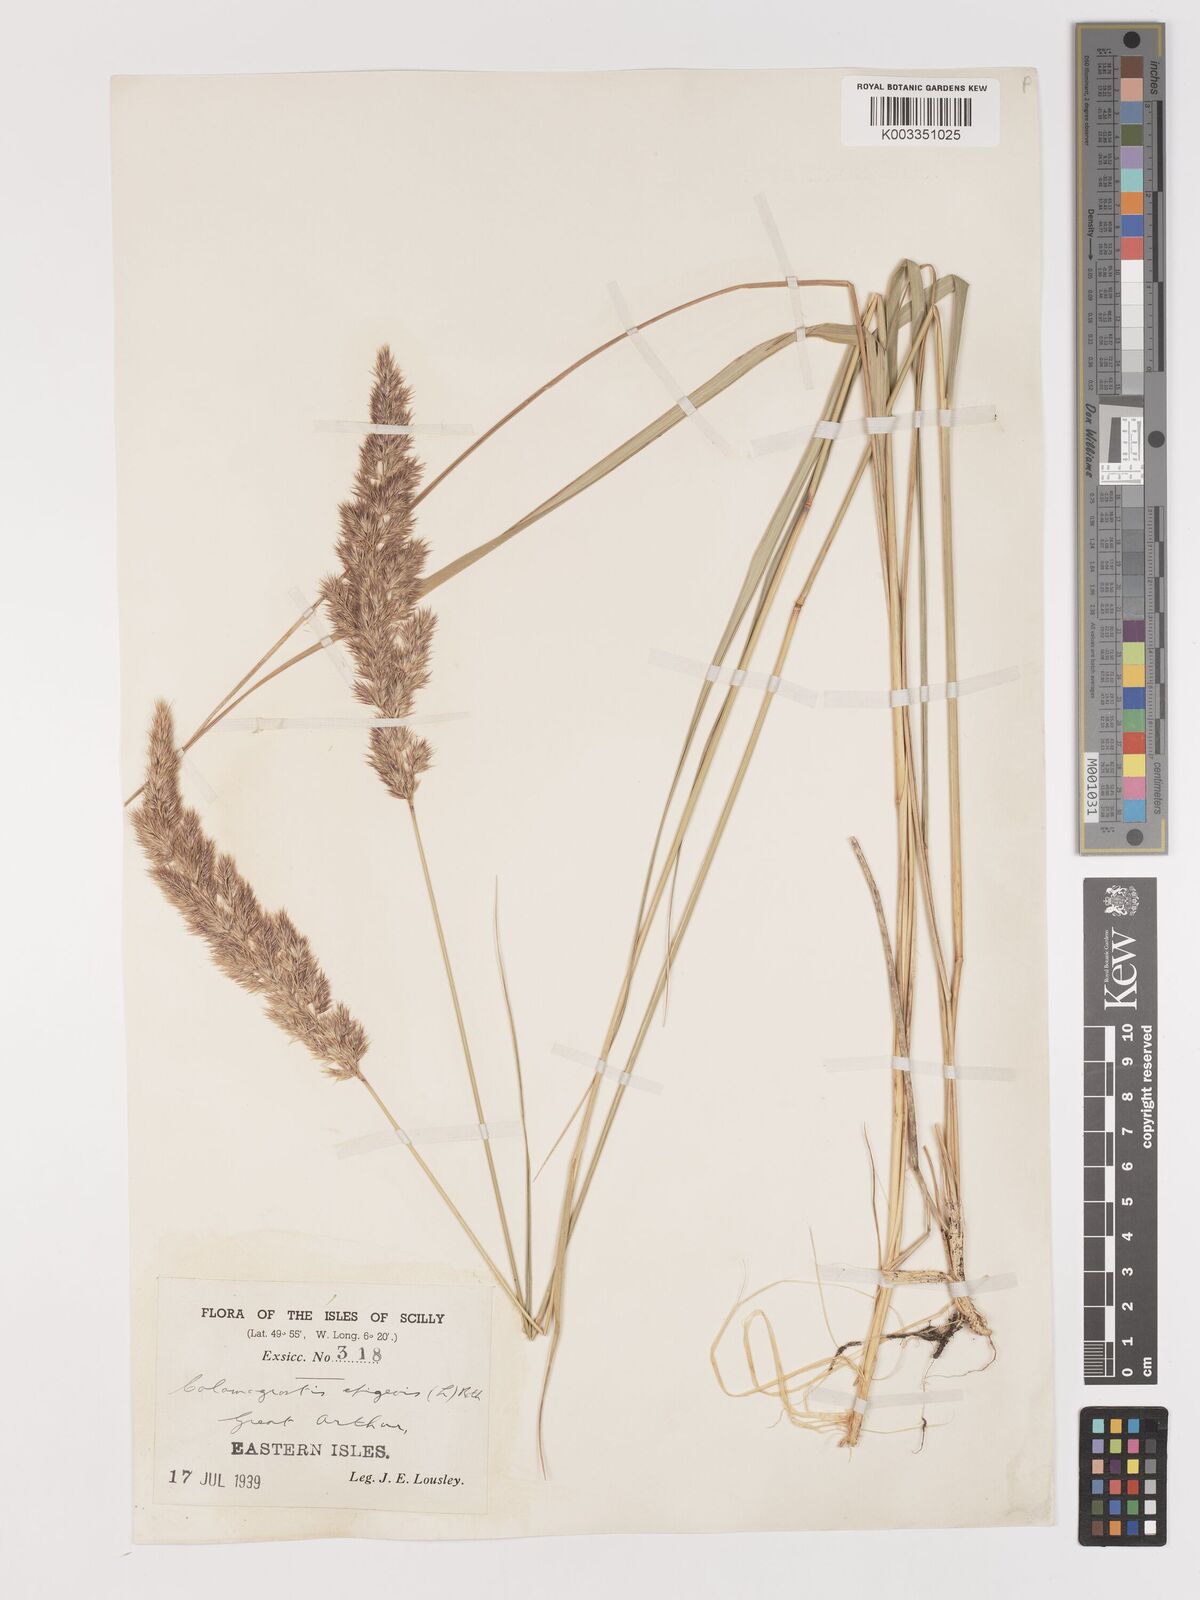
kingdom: Plantae
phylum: Tracheophyta
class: Liliopsida
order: Poales
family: Poaceae
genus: Calamagrostis
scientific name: Calamagrostis epigejos
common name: Wood small-reed
